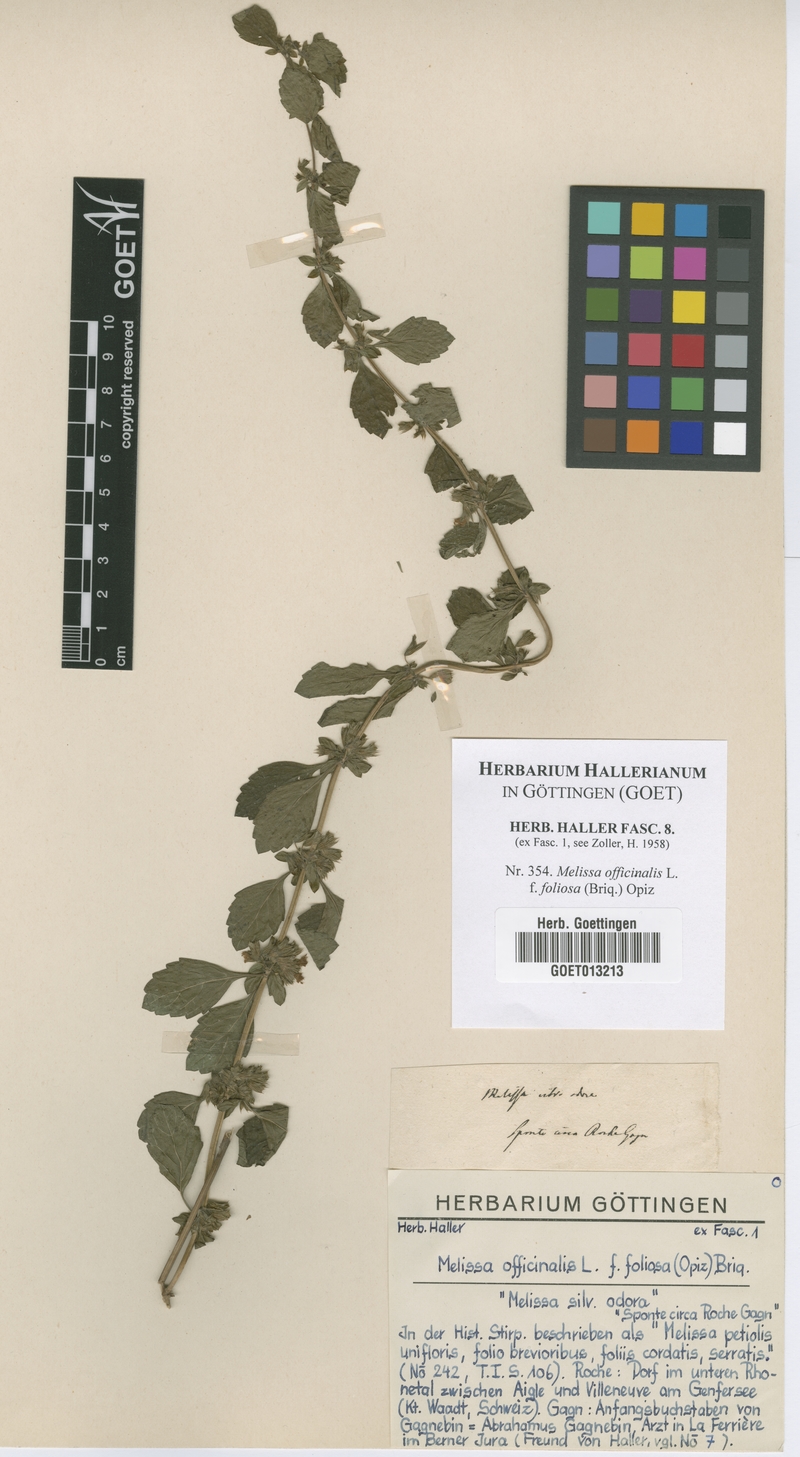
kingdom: Plantae
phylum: Tracheophyta
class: Magnoliopsida
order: Lamiales
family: Lamiaceae
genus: Melissa
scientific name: Melissa officinalis
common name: Balm
